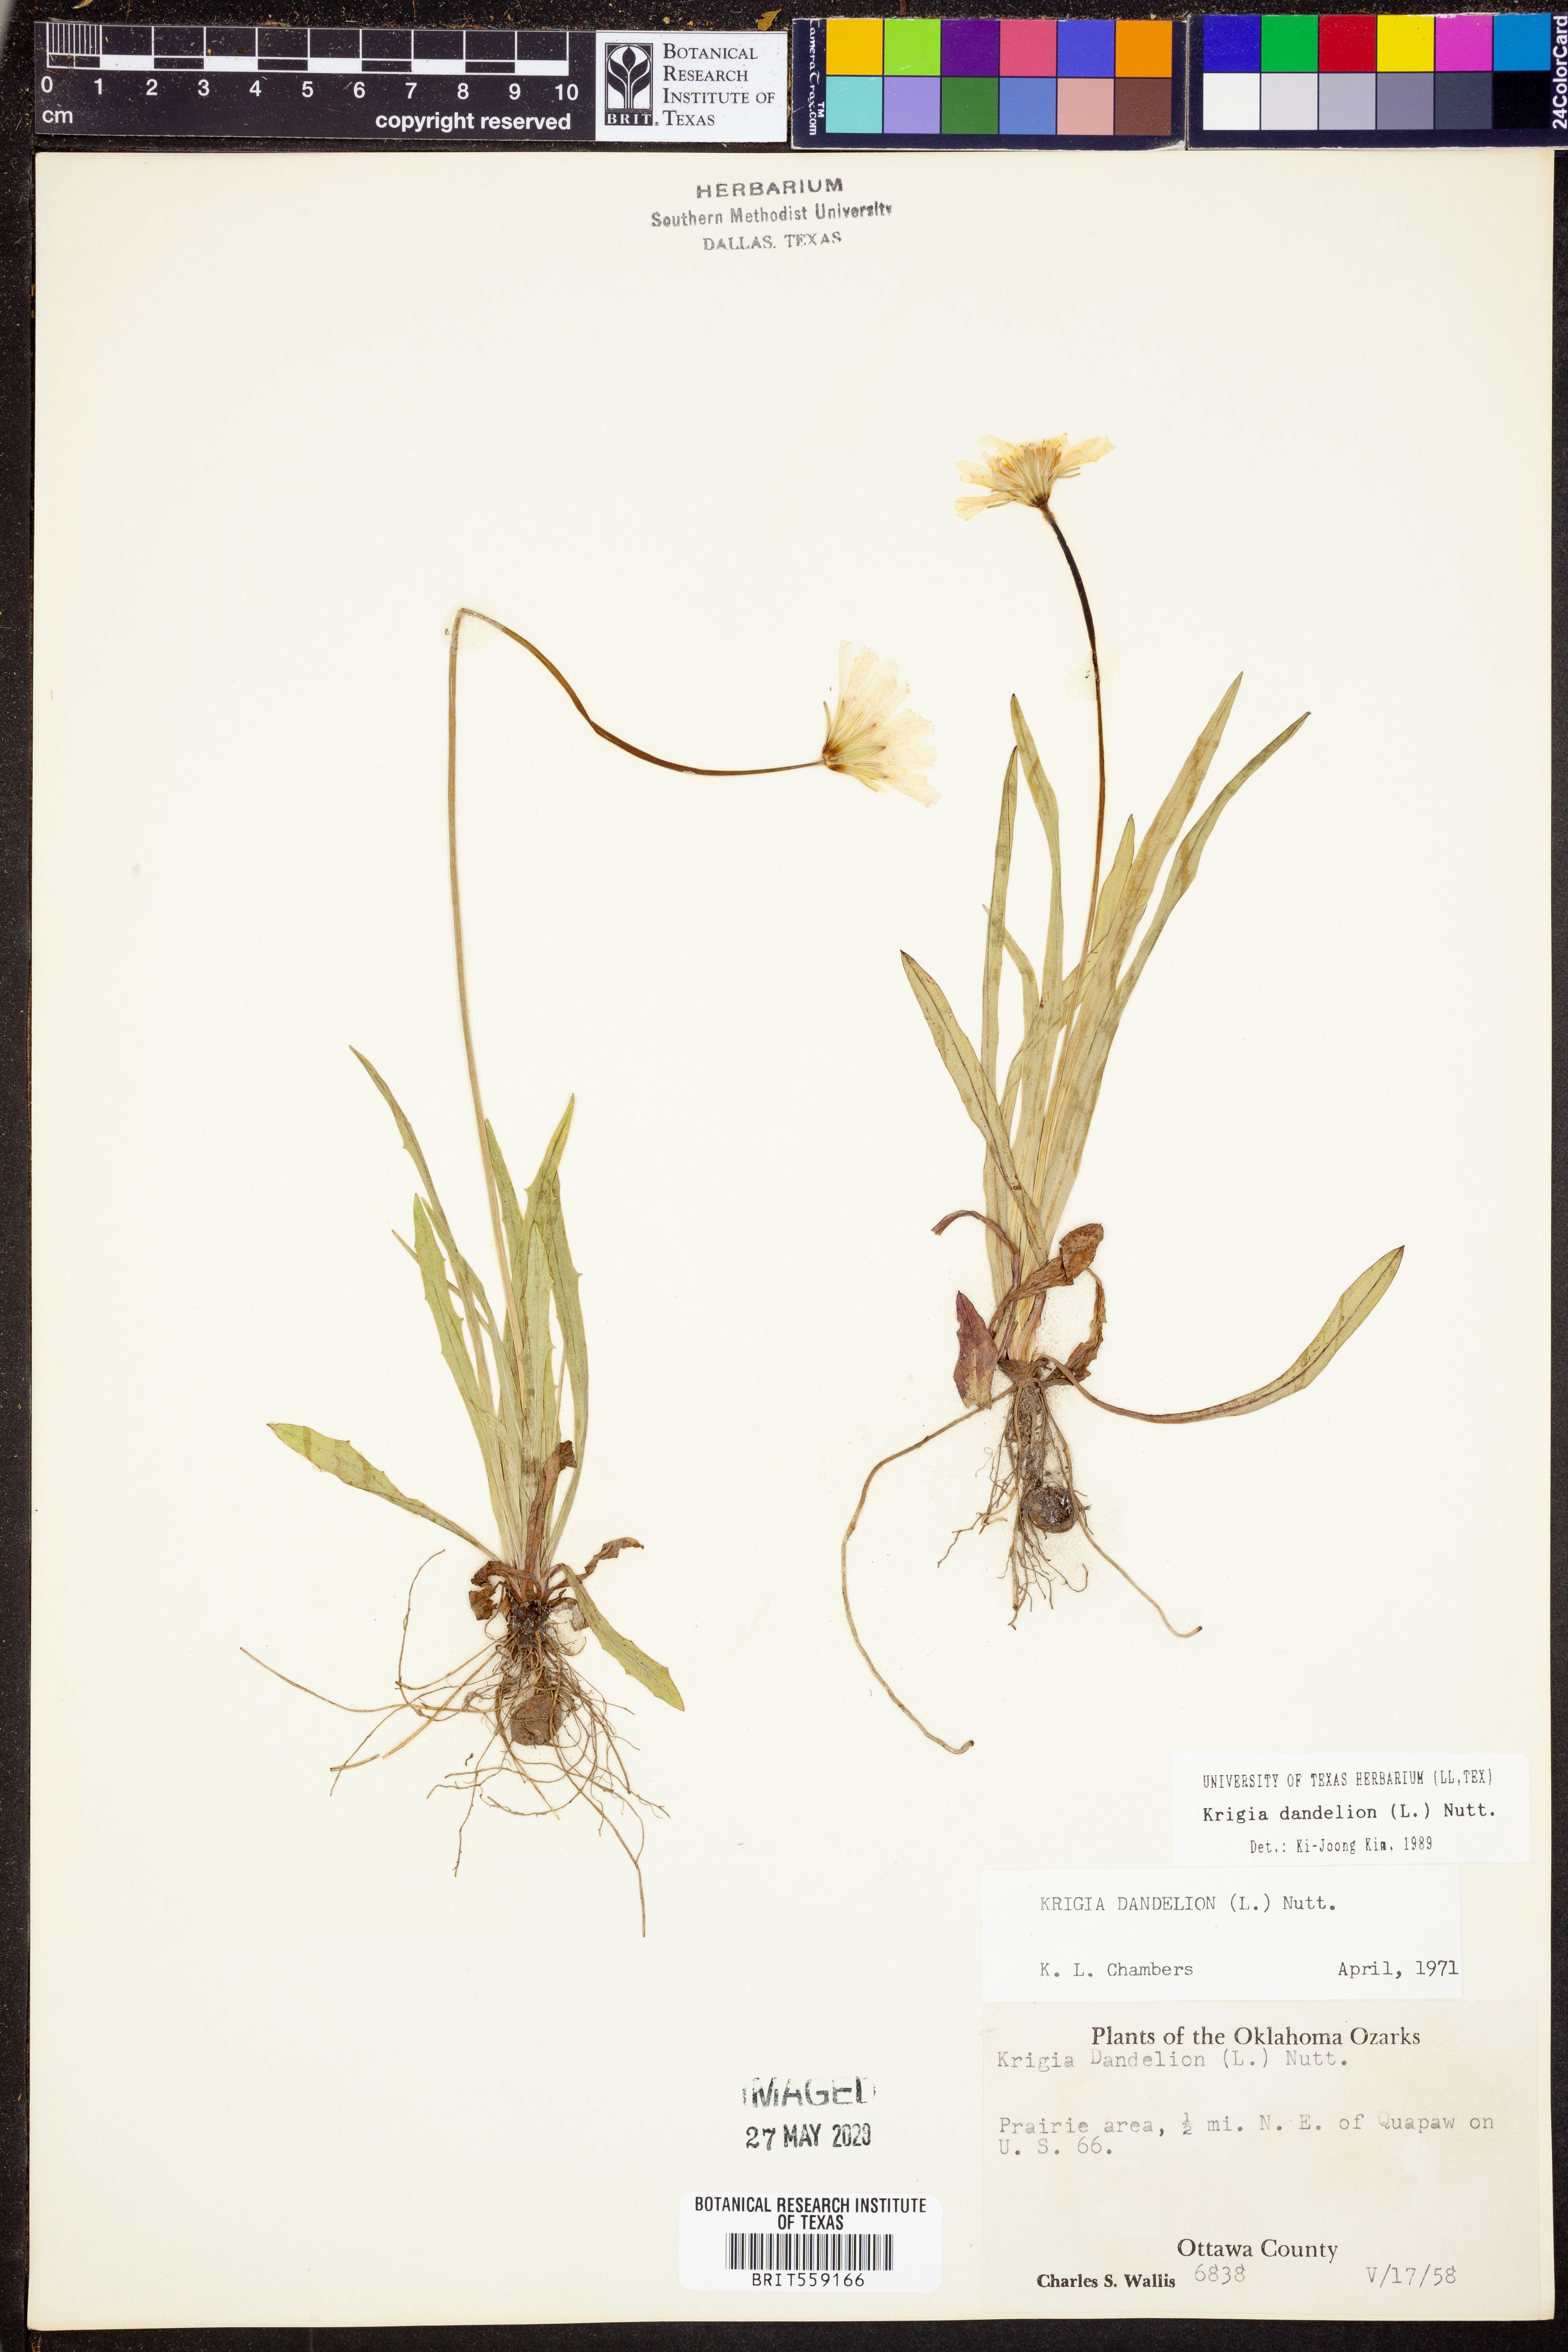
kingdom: Plantae
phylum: Tracheophyta
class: Magnoliopsida
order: Asterales
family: Asteraceae
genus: Krigia
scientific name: Krigia dandelion
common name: Colonial dwarf-dandelion
